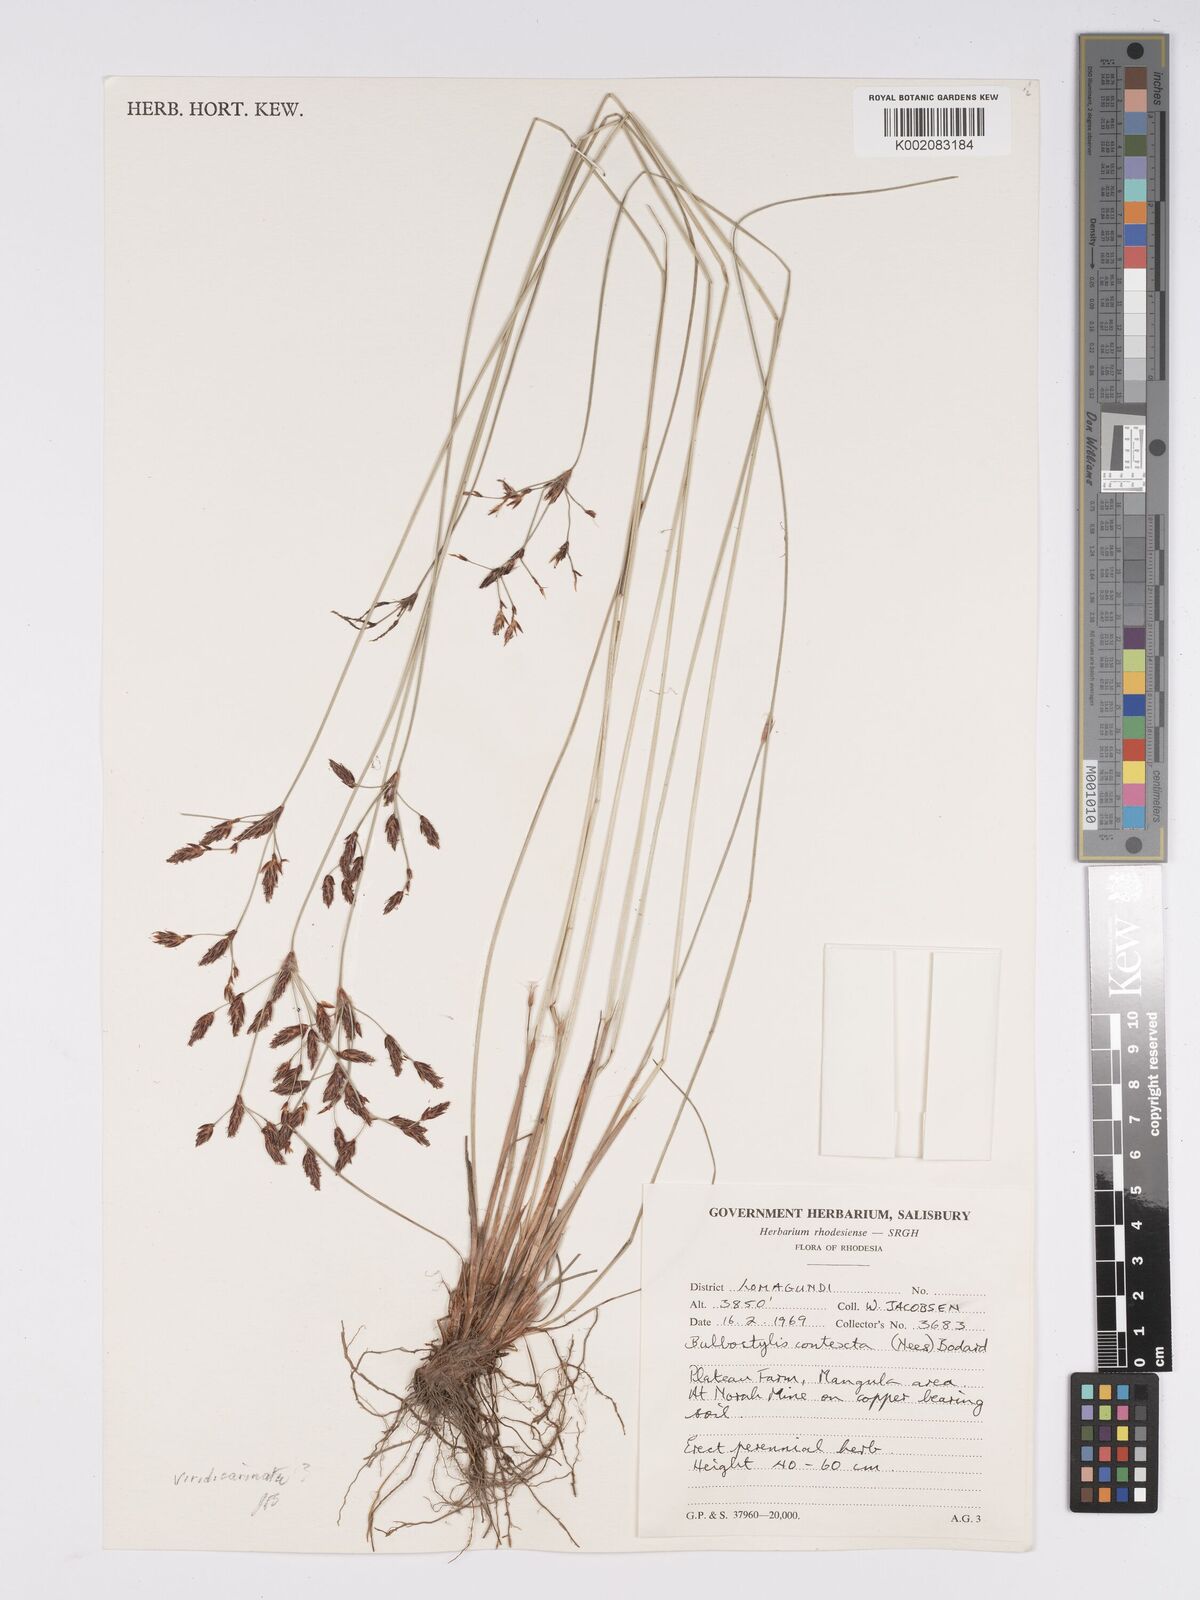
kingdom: Plantae
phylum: Tracheophyta
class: Liliopsida
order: Poales
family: Cyperaceae
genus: Bulbostylis
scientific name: Bulbostylis contexta
